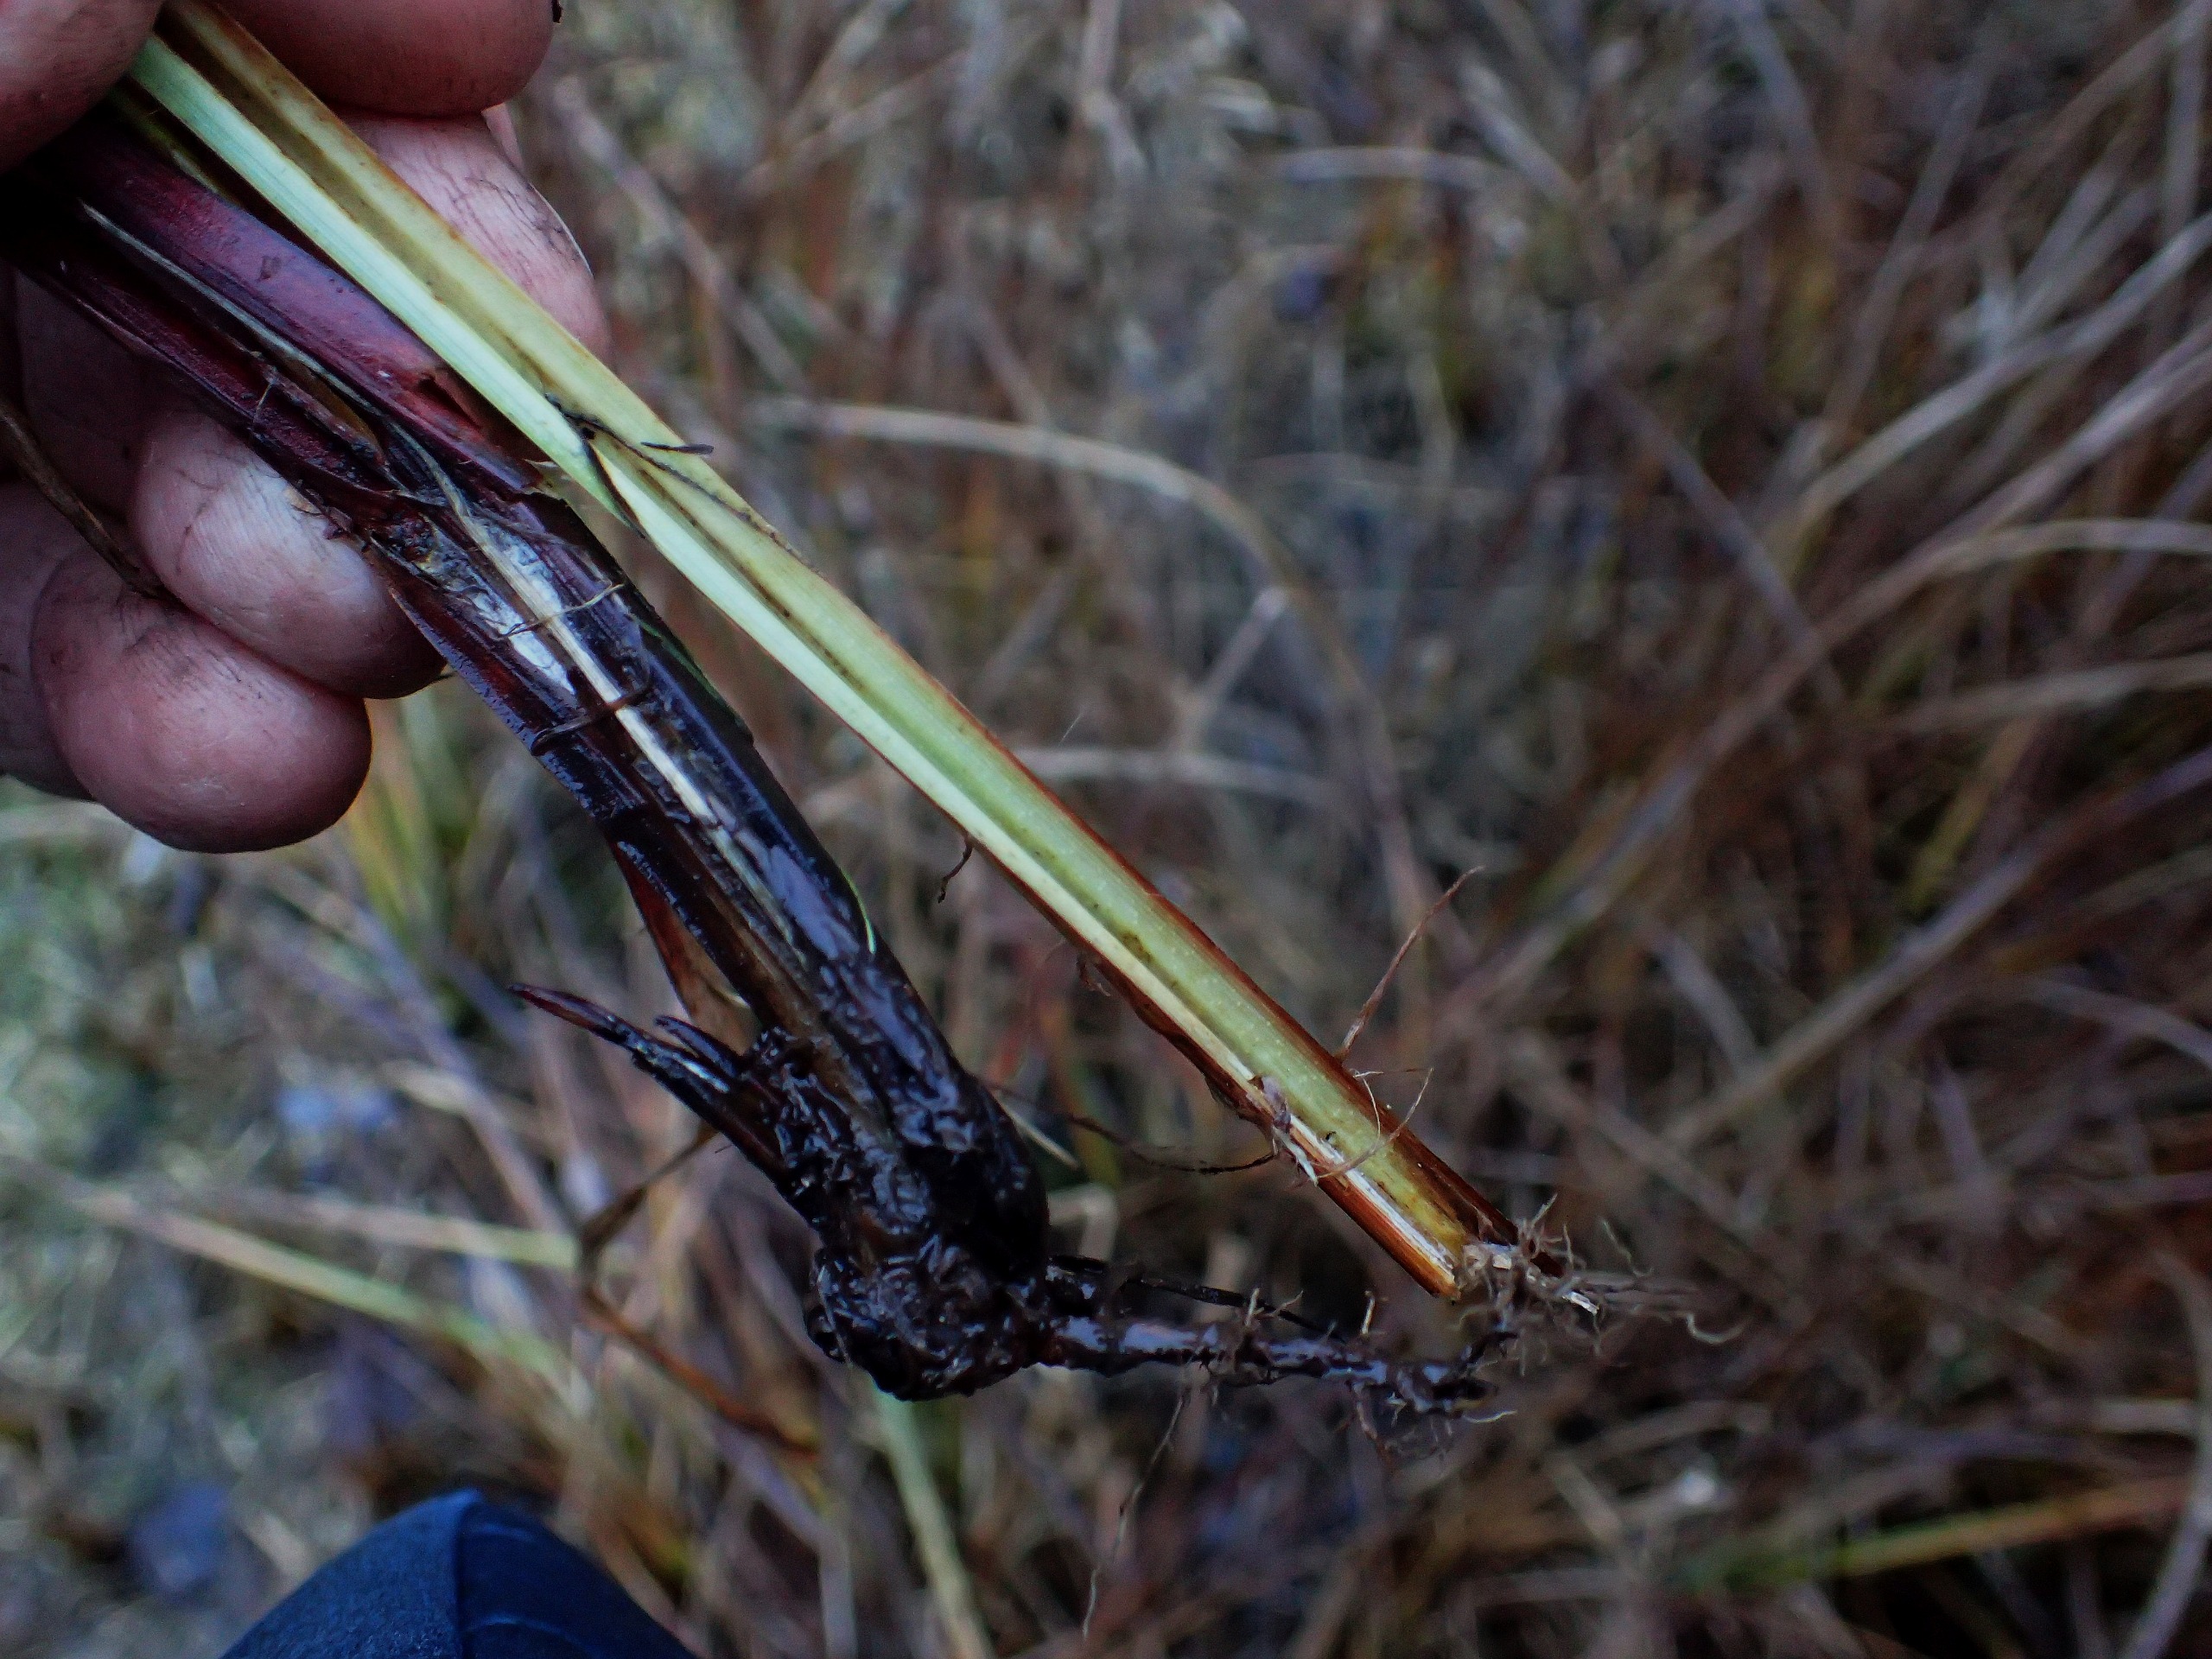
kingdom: Plantae
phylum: Tracheophyta
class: Liliopsida
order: Poales
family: Cyperaceae
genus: Carex
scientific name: Carex acutiformis
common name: Kær-star
